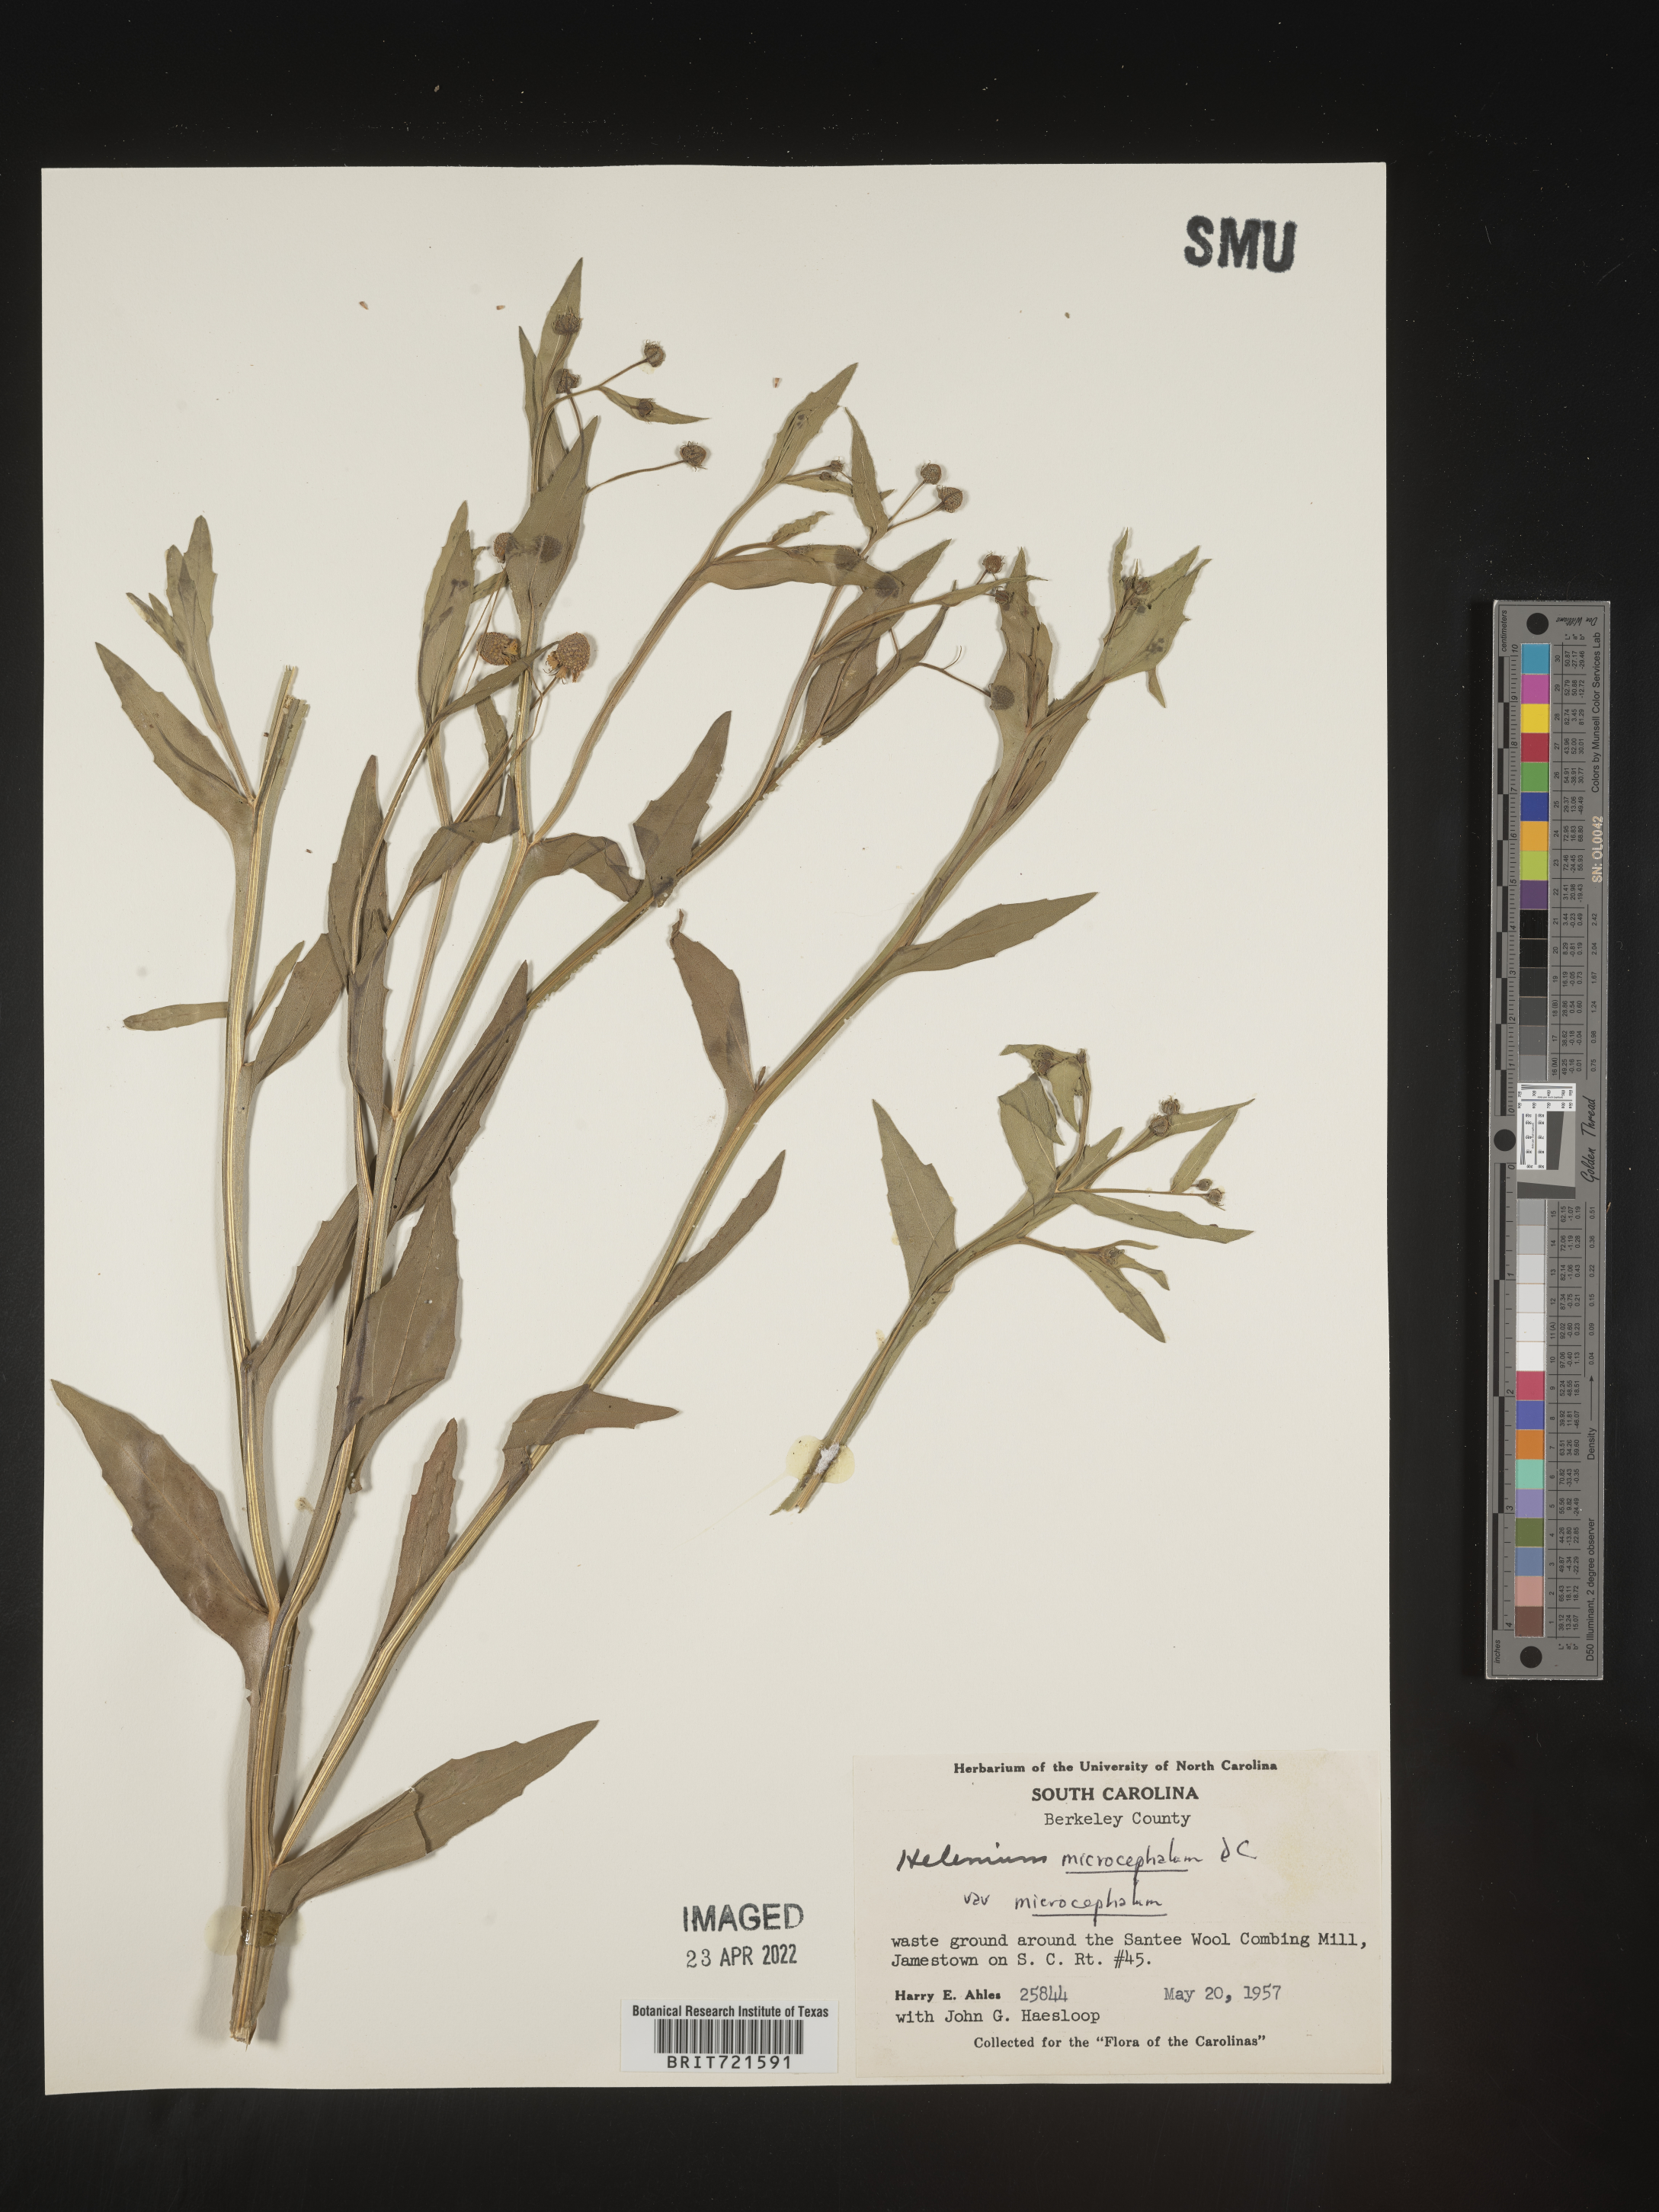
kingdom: Plantae
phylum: Tracheophyta
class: Magnoliopsida
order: Asterales
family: Asteraceae
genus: Helenium
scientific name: Helenium microcephalum
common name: Smallhead sneezeweed
